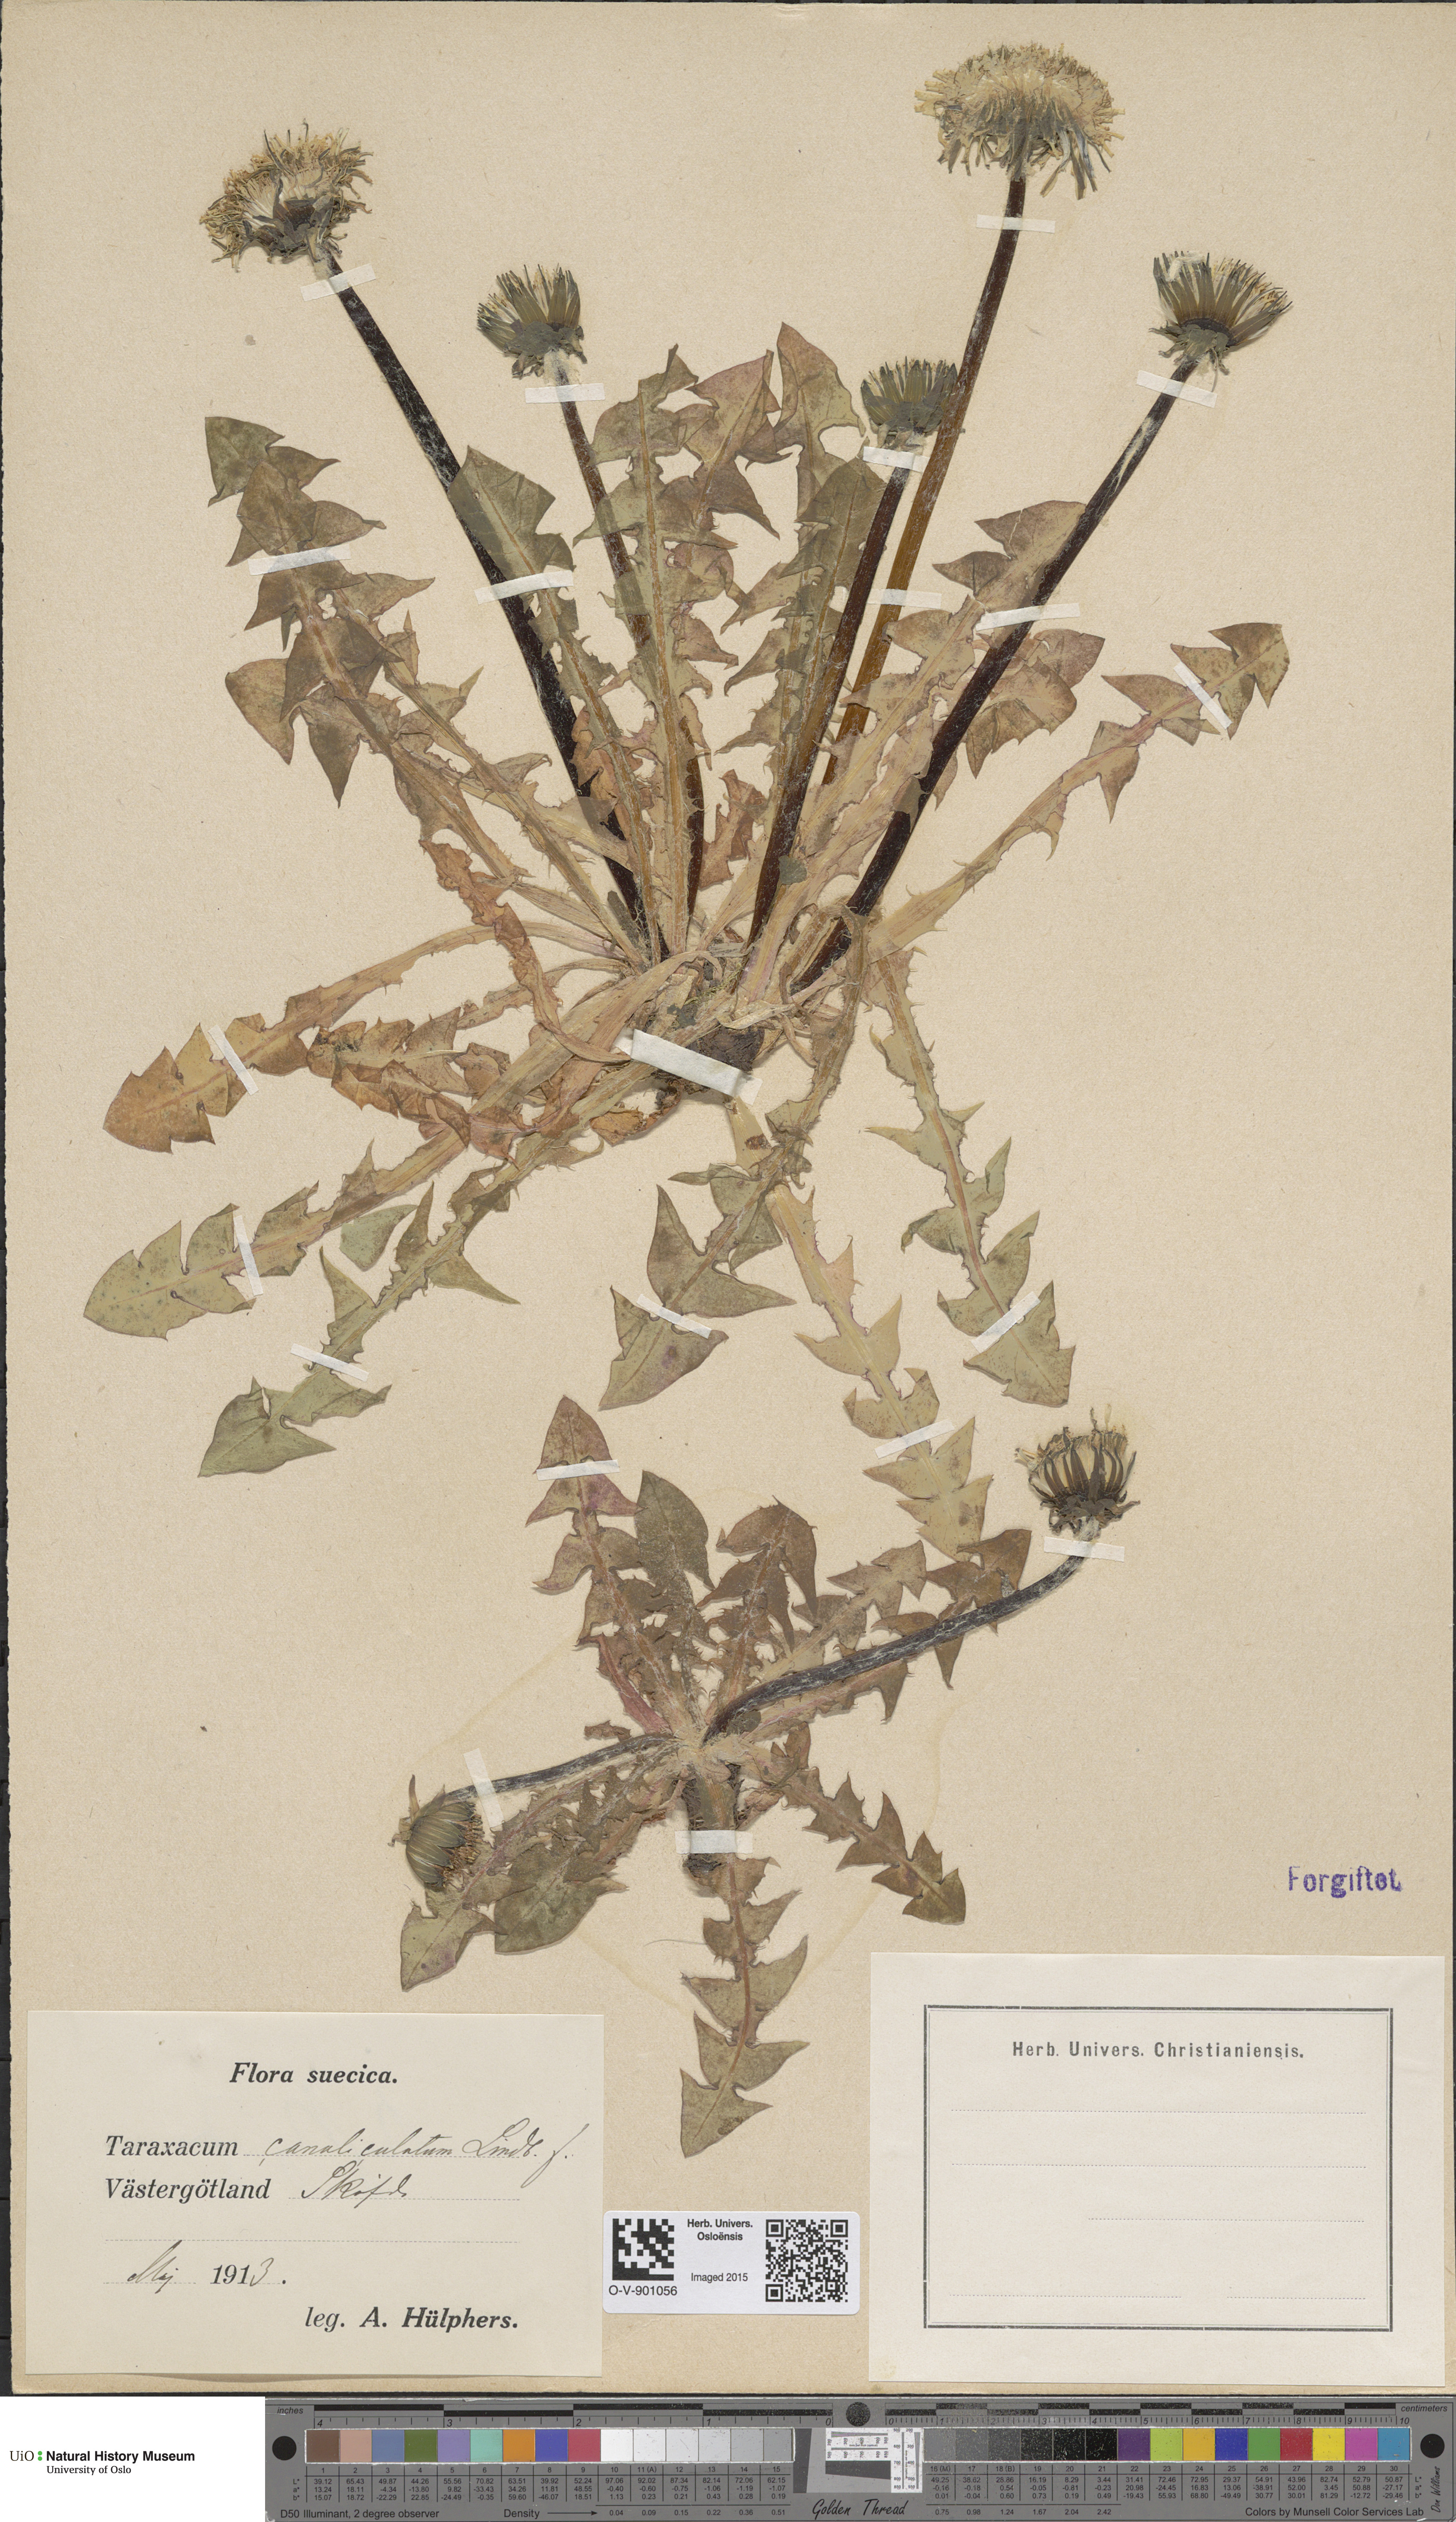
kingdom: Plantae
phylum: Tracheophyta
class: Magnoliopsida
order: Asterales
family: Asteraceae
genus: Taraxacum
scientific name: Taraxacum canaliculatum
